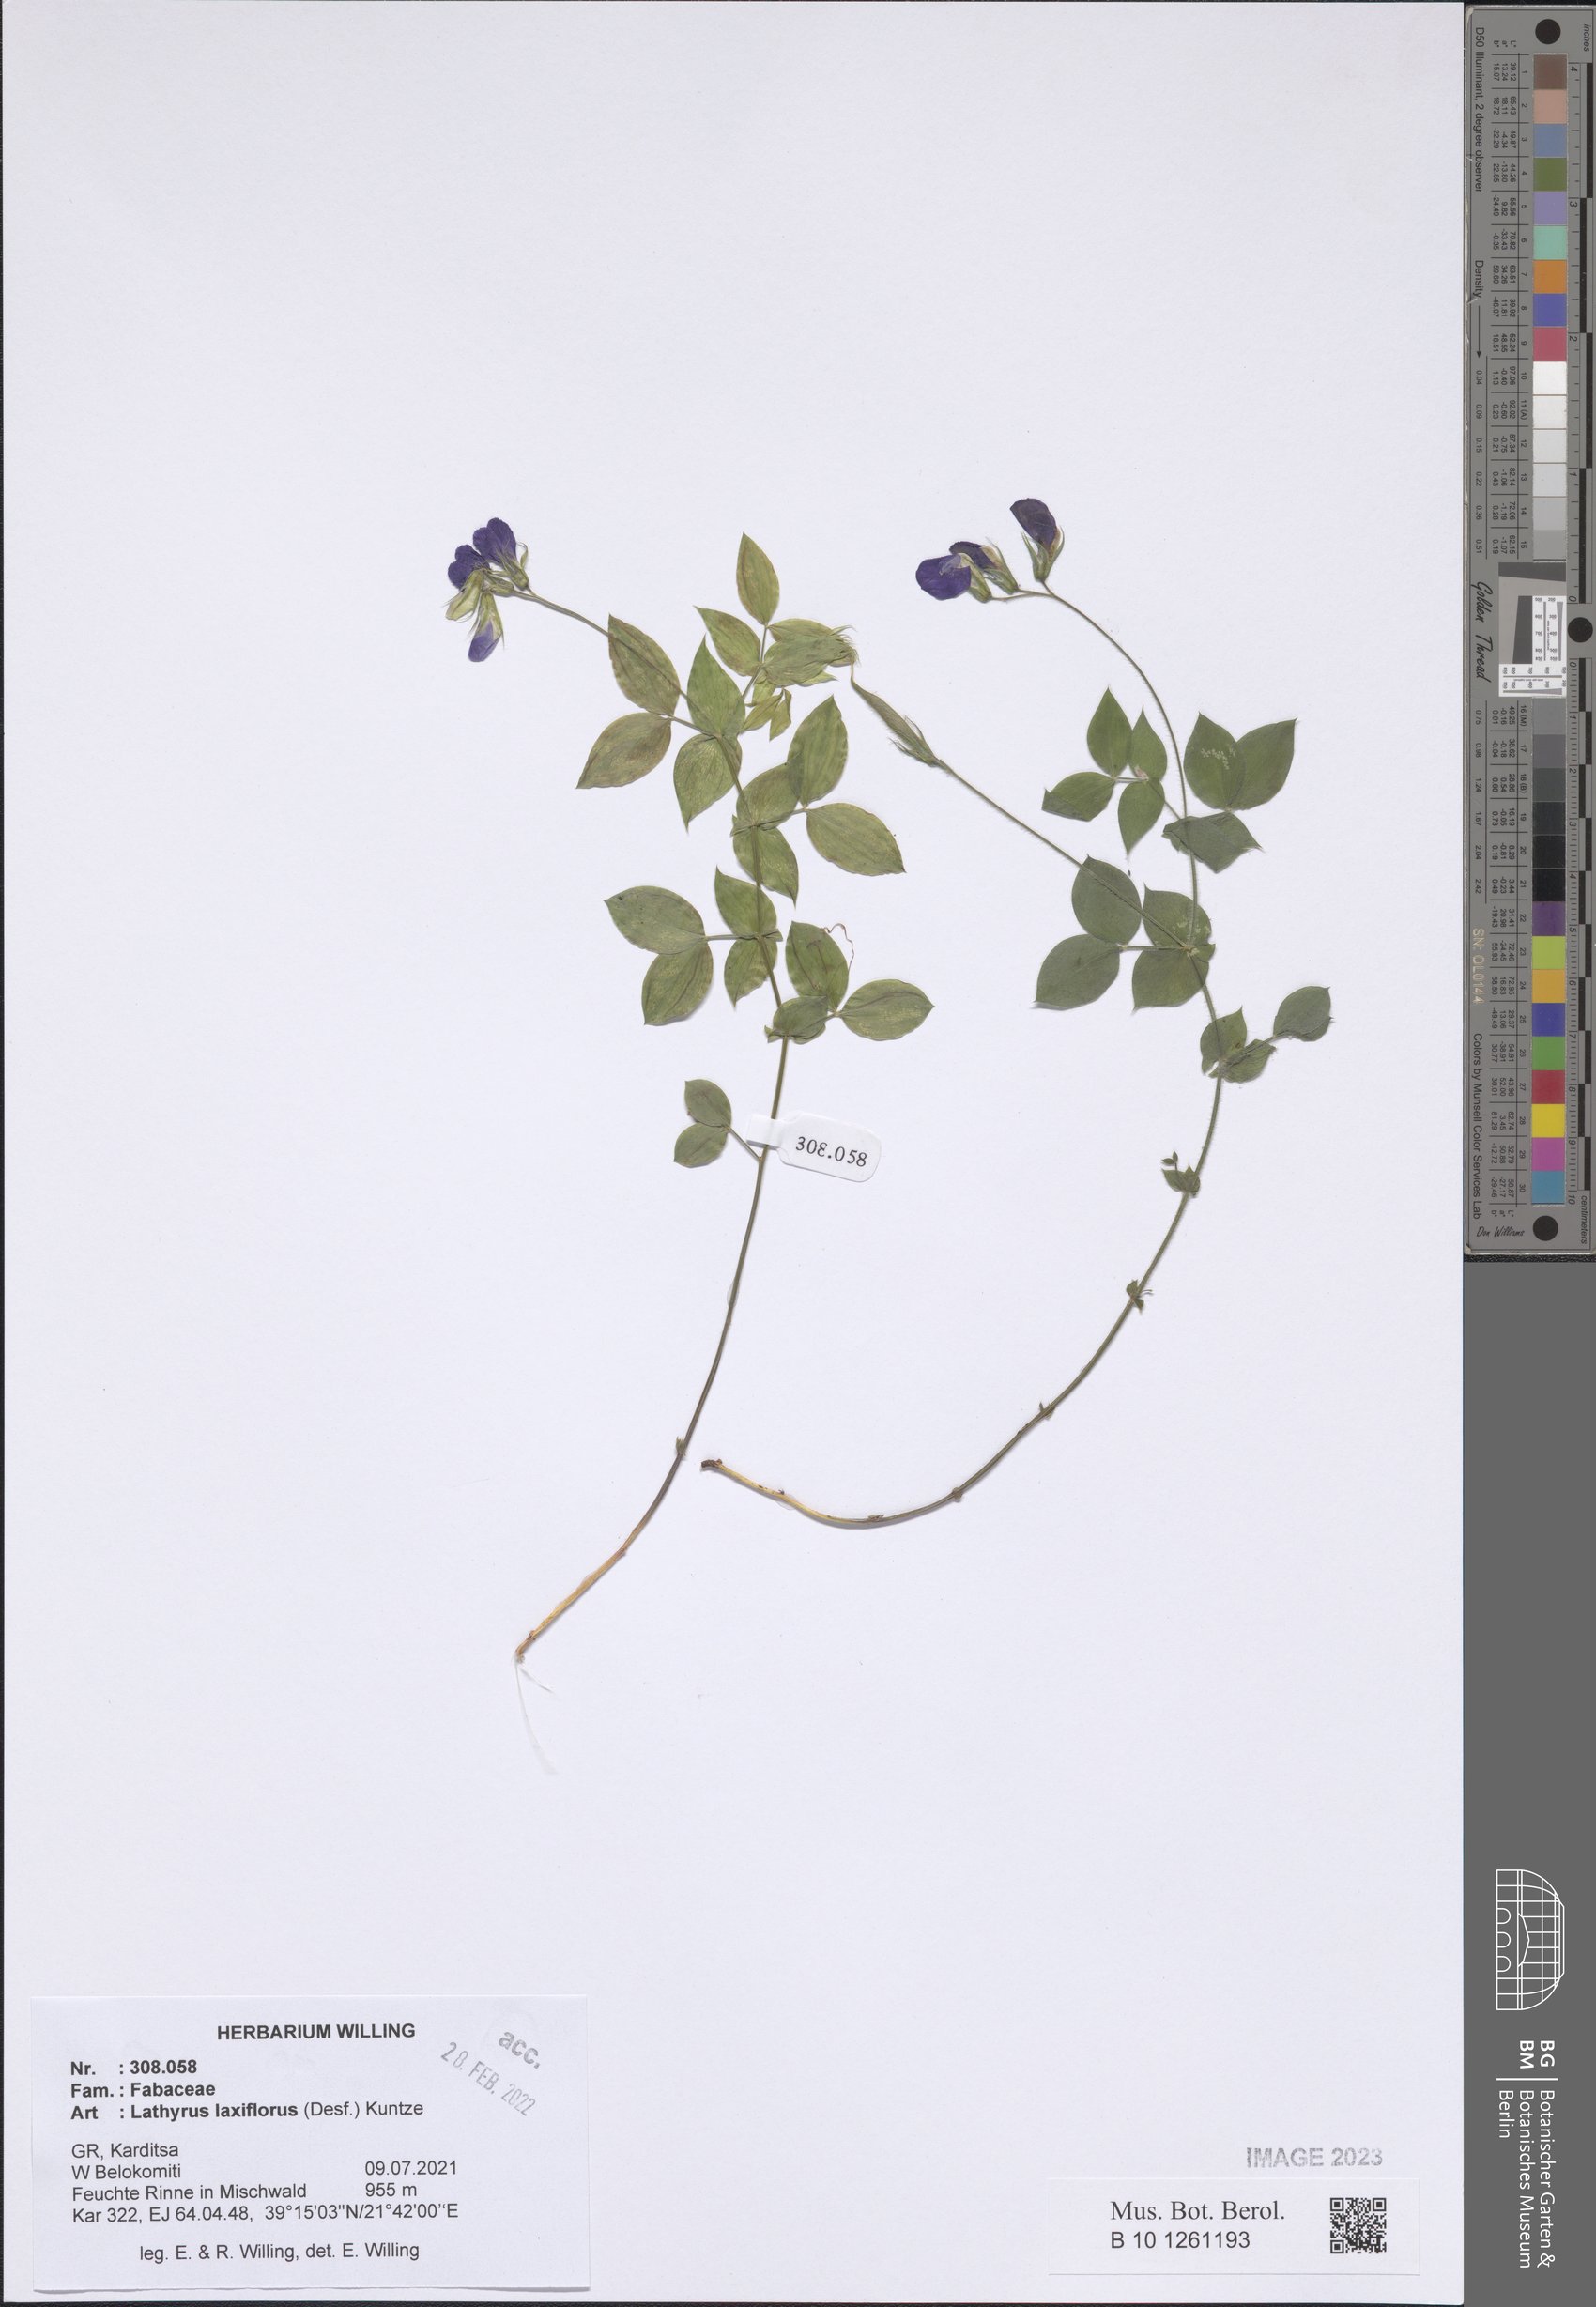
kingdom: Plantae
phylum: Tracheophyta
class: Magnoliopsida
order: Fabales
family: Fabaceae
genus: Lathyrus
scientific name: Lathyrus laxiflorus
